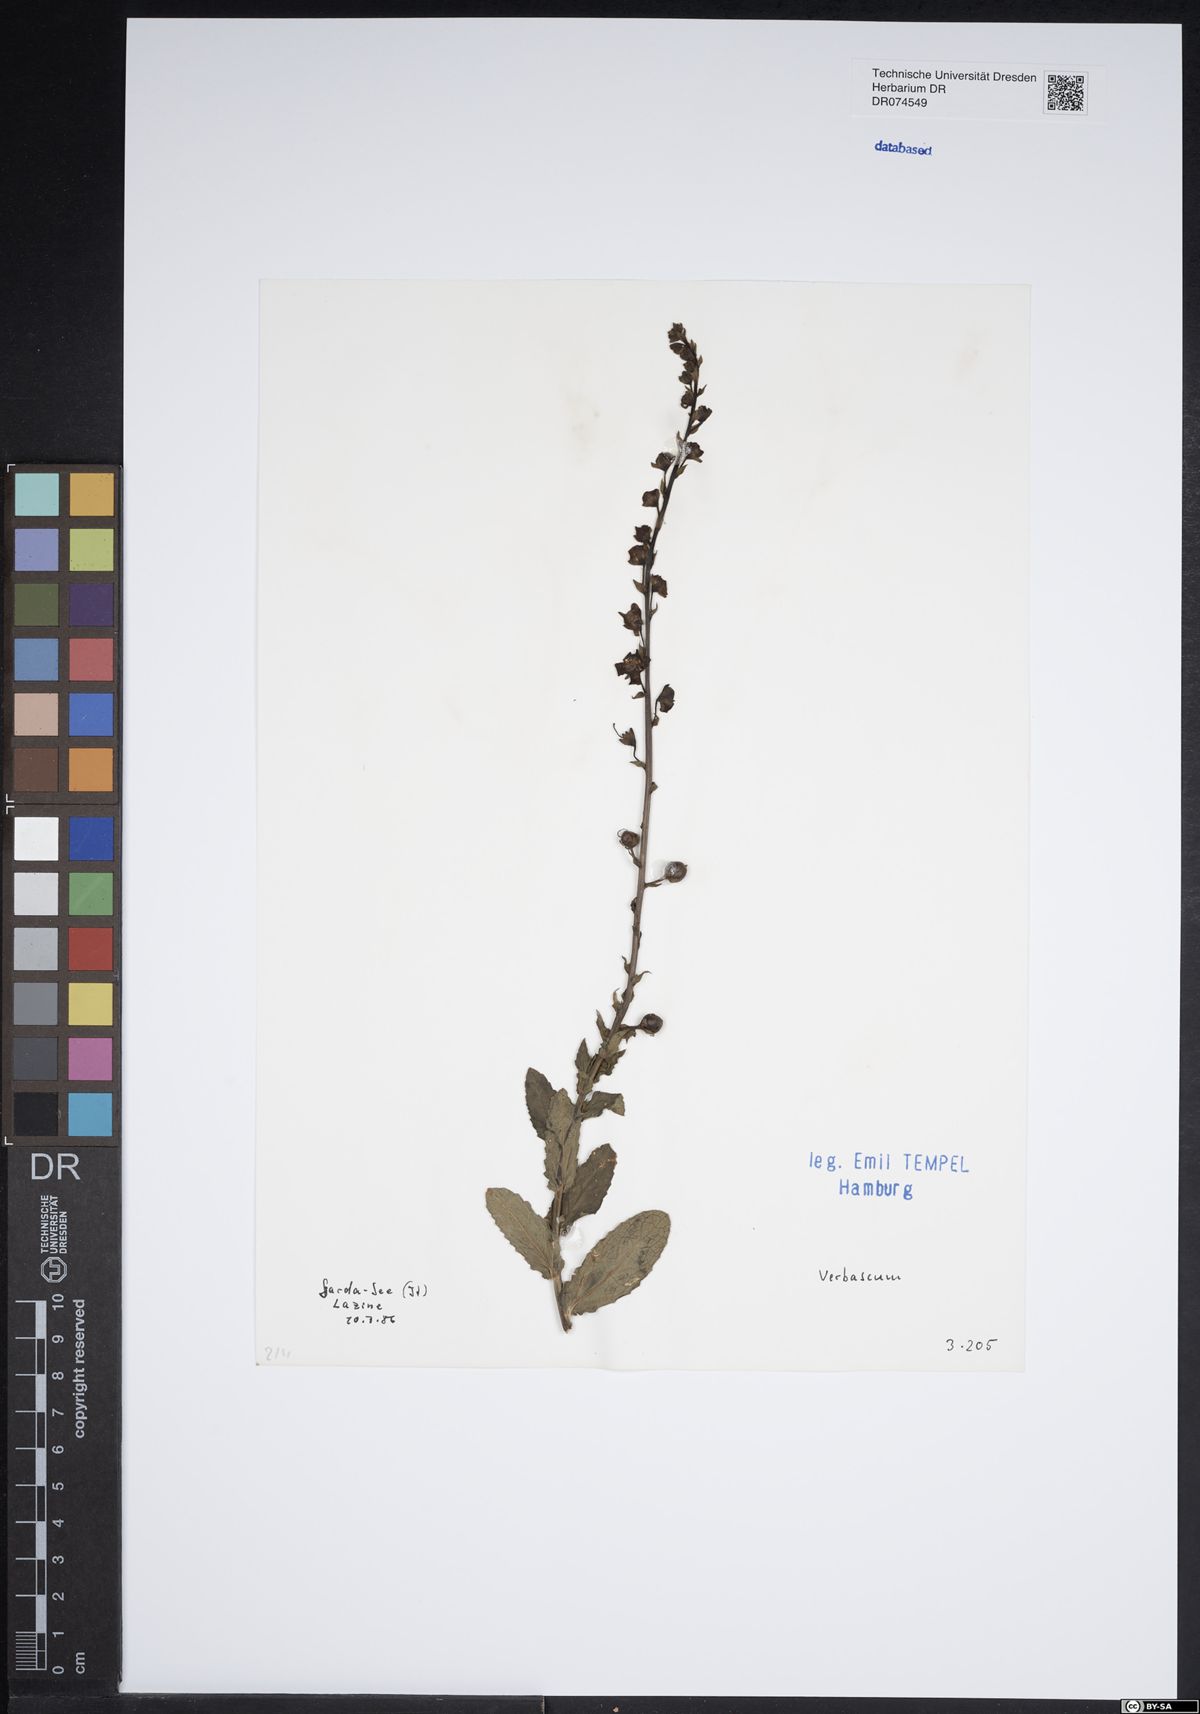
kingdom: Plantae
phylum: Tracheophyta
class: Magnoliopsida
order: Lamiales
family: Scrophulariaceae
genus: Verbascum
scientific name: Verbascum
